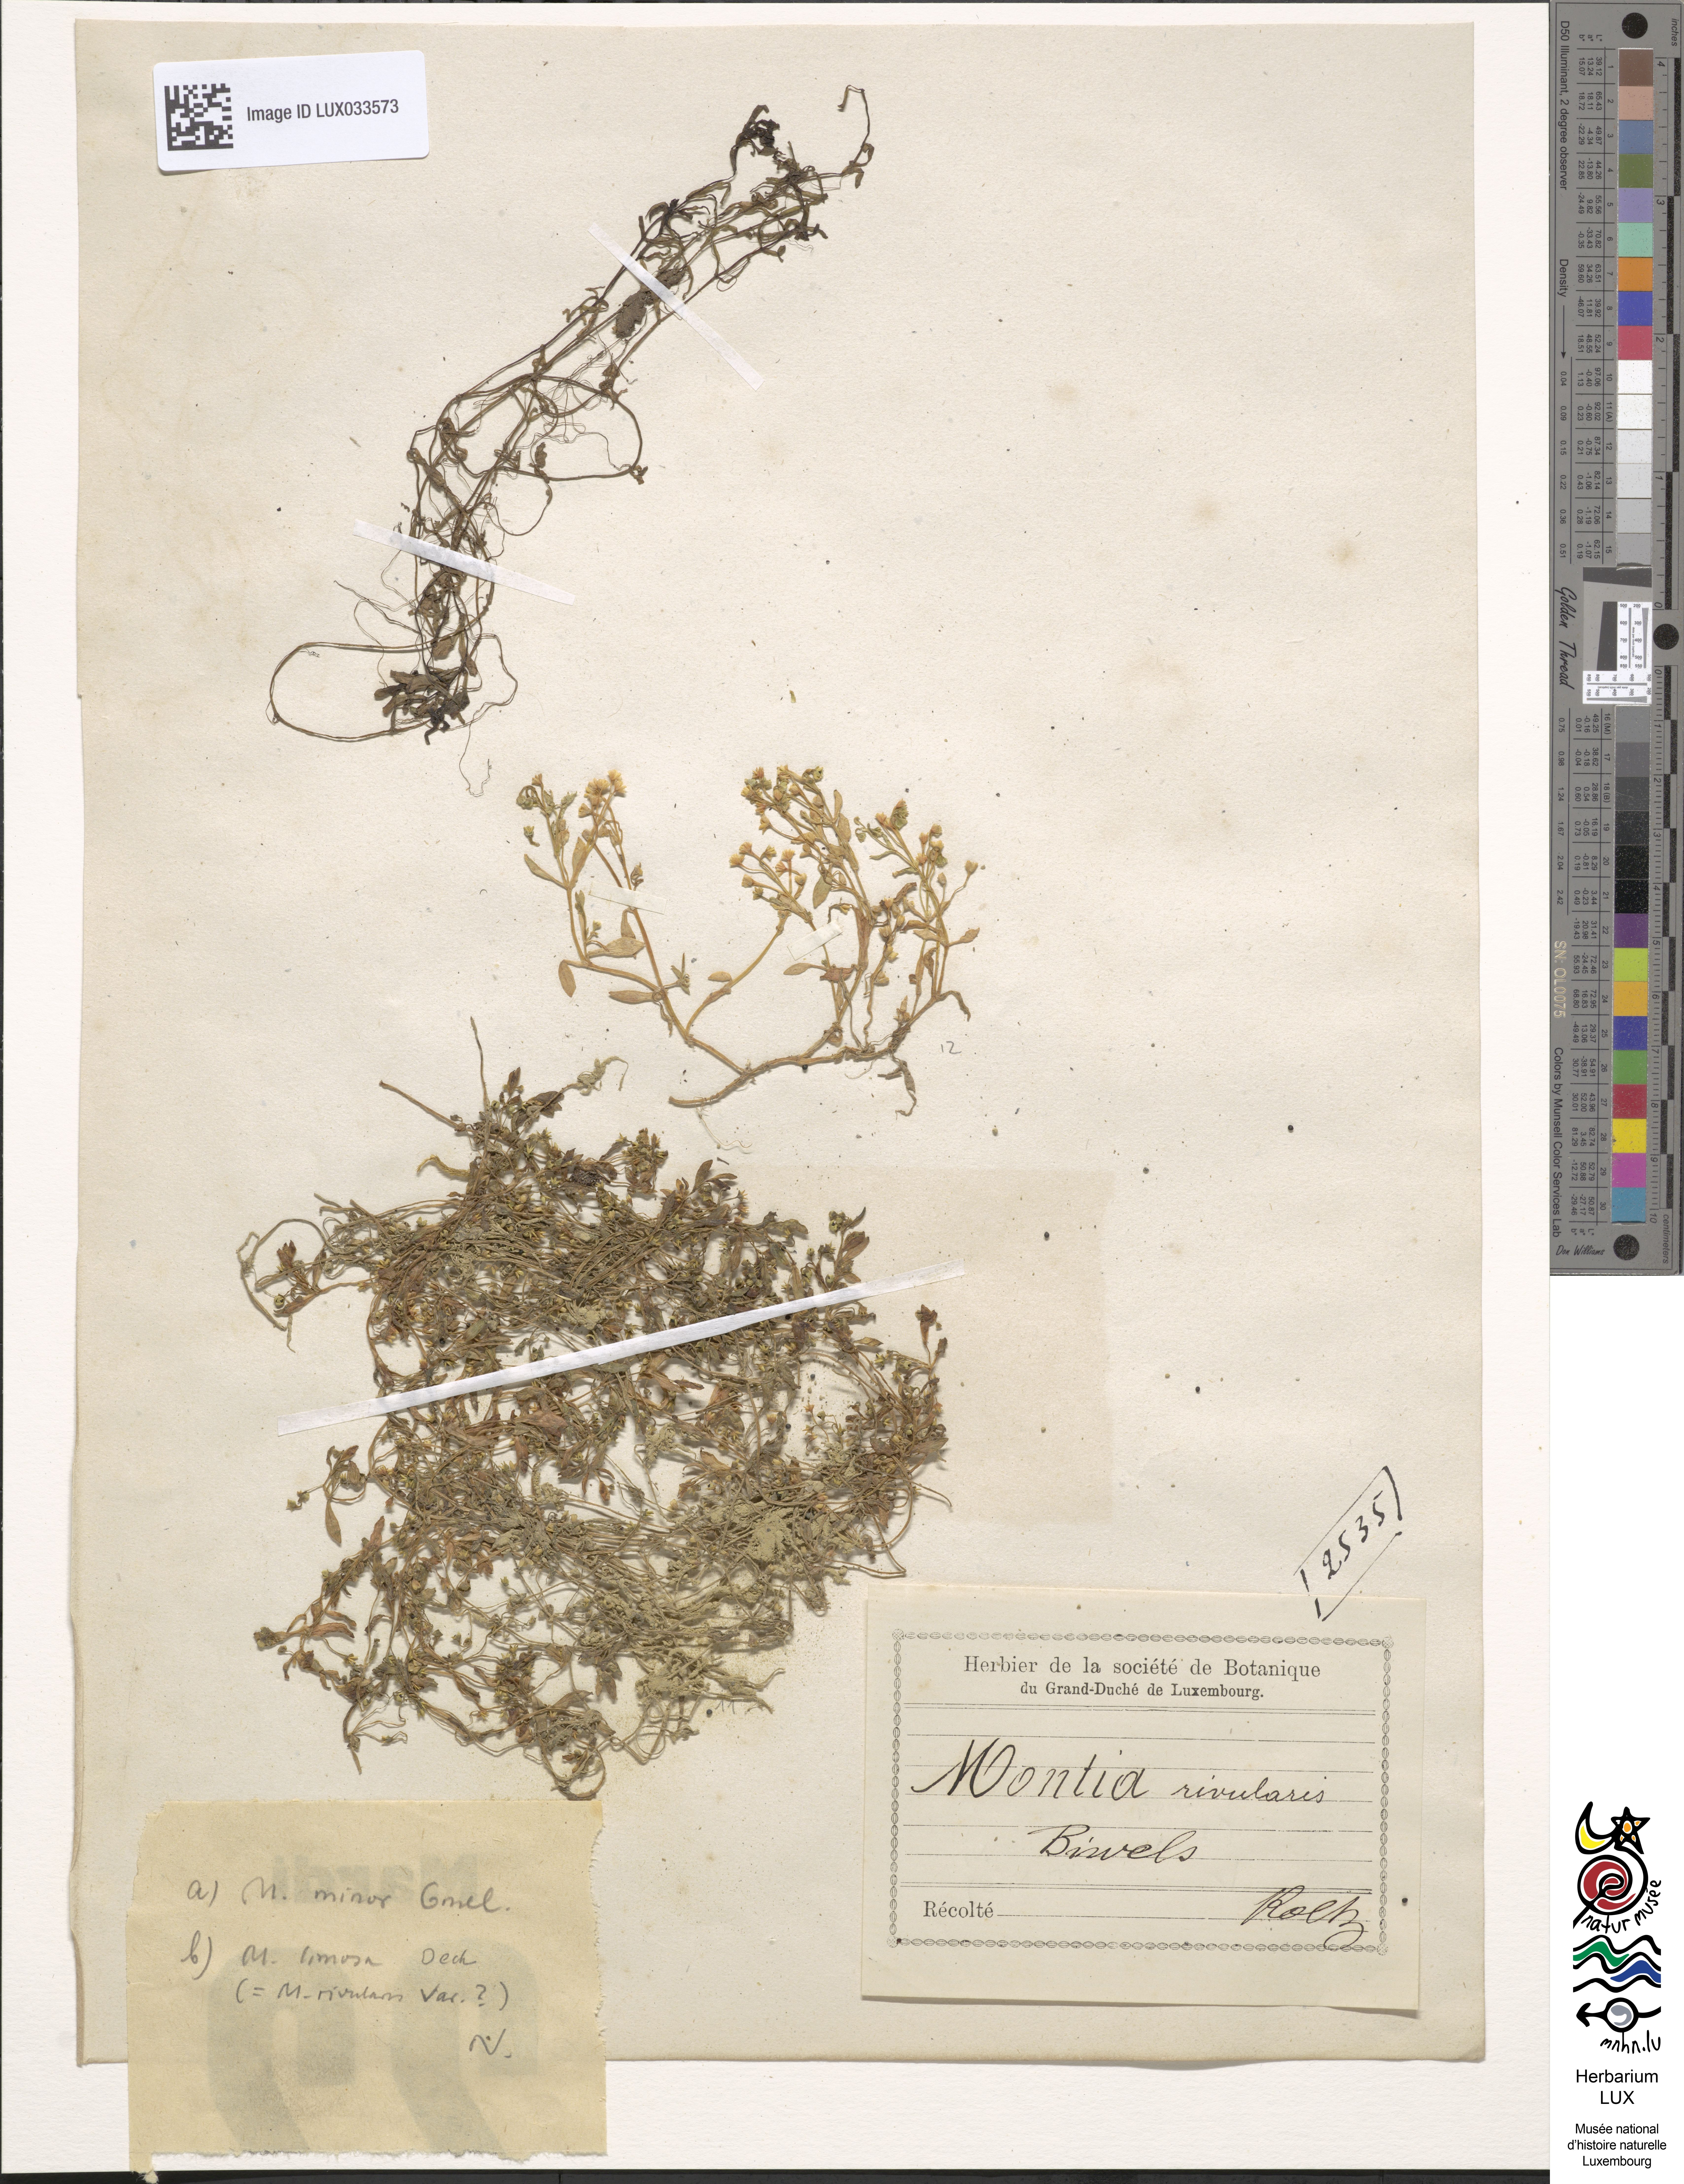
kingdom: Plantae
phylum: Tracheophyta
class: Magnoliopsida
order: Caryophyllales
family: Montiaceae
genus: Montia
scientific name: Montia fontana
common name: Blinks
